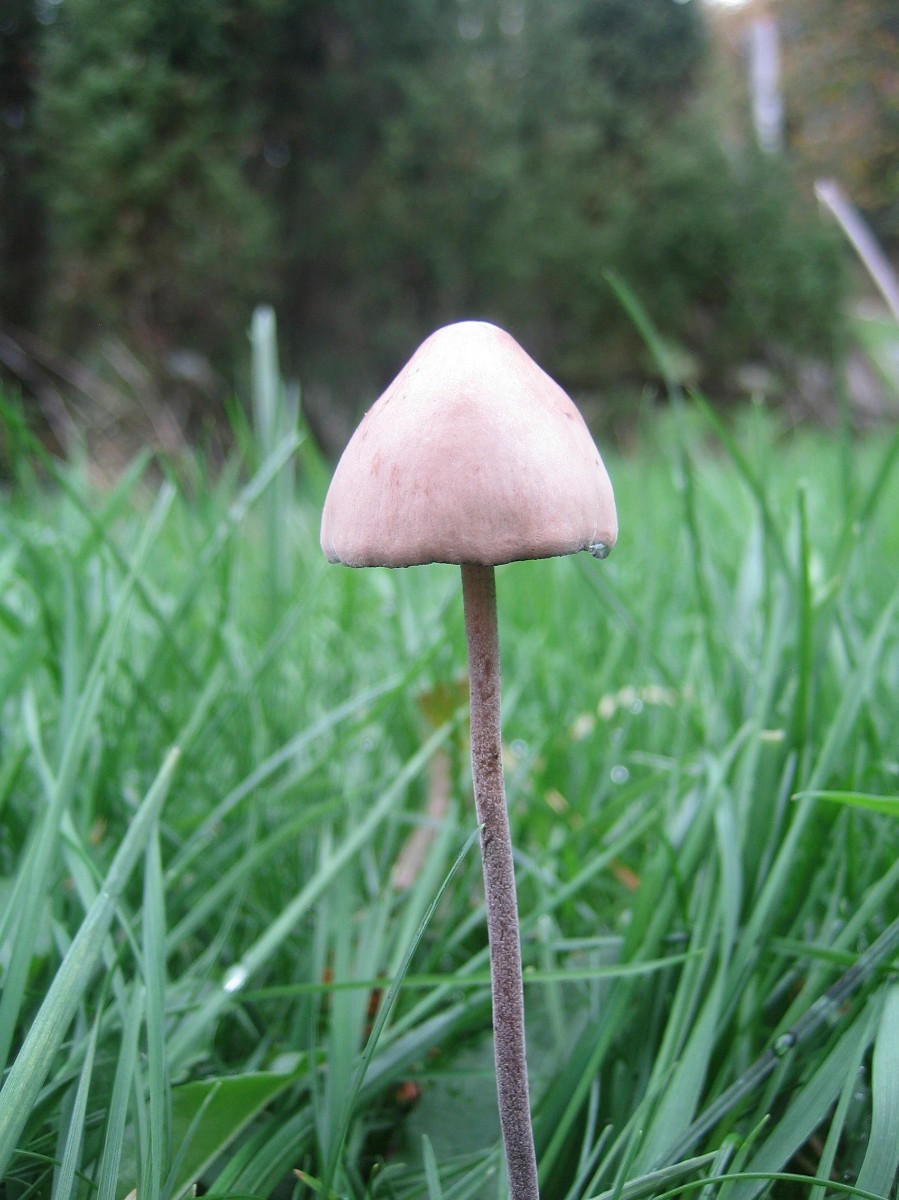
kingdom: Fungi
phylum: Basidiomycota
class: Agaricomycetes
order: Agaricales
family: Bolbitiaceae
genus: Panaeolus
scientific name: Panaeolus
